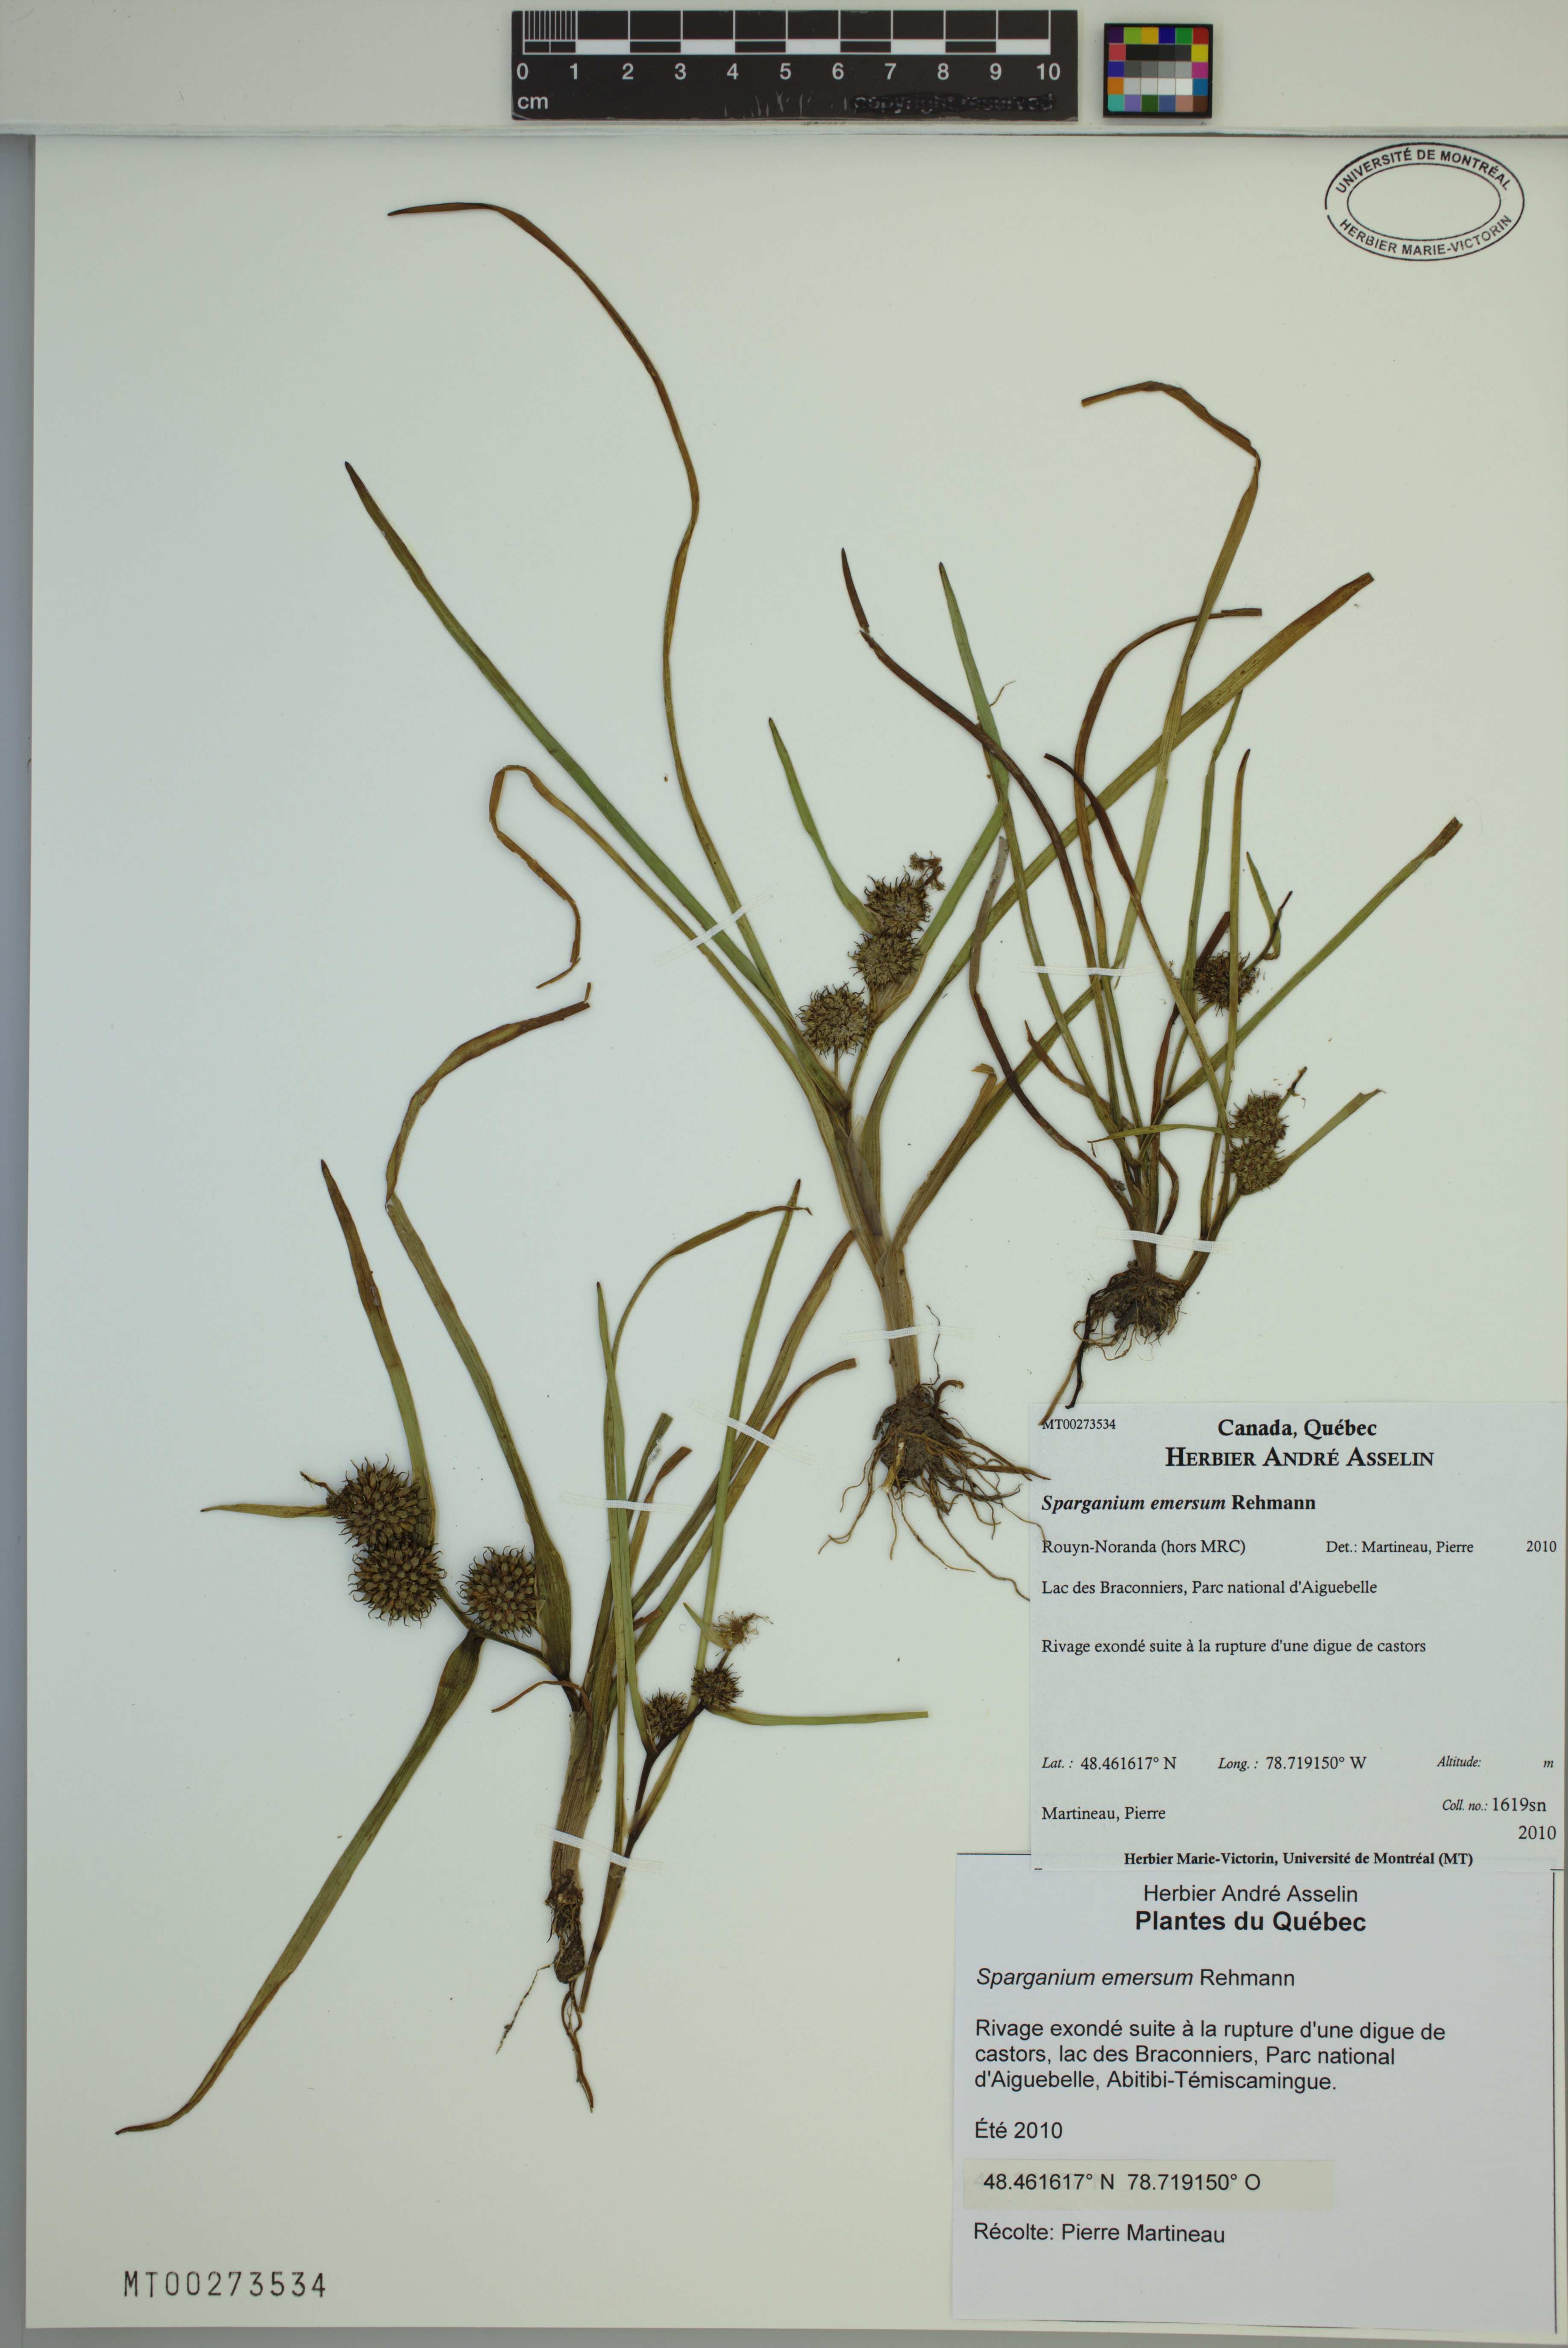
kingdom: Plantae
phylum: Tracheophyta
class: Liliopsida
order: Poales
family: Typhaceae
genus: Sparganium
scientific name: Sparganium emersum
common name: Unbranched bur-reed
